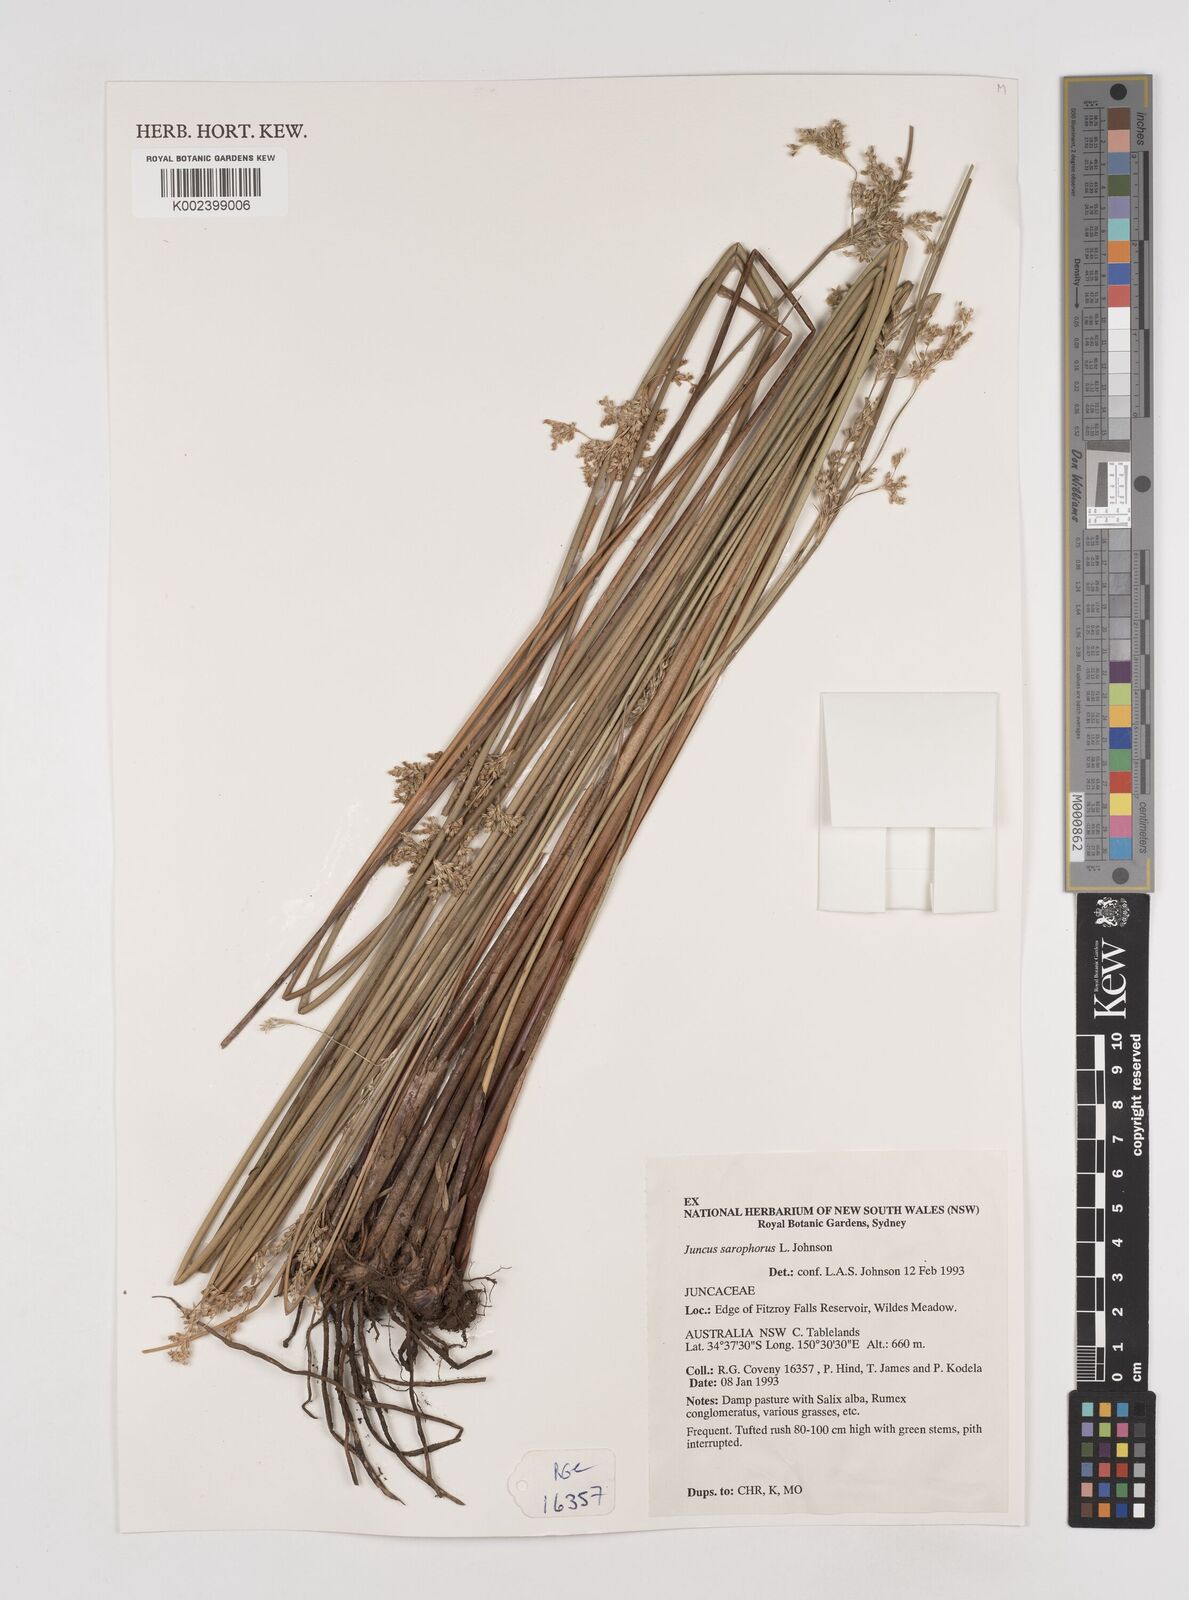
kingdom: Plantae
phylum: Tracheophyta
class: Liliopsida
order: Poales
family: Juncaceae
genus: Juncus
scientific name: Juncus sarophorus
